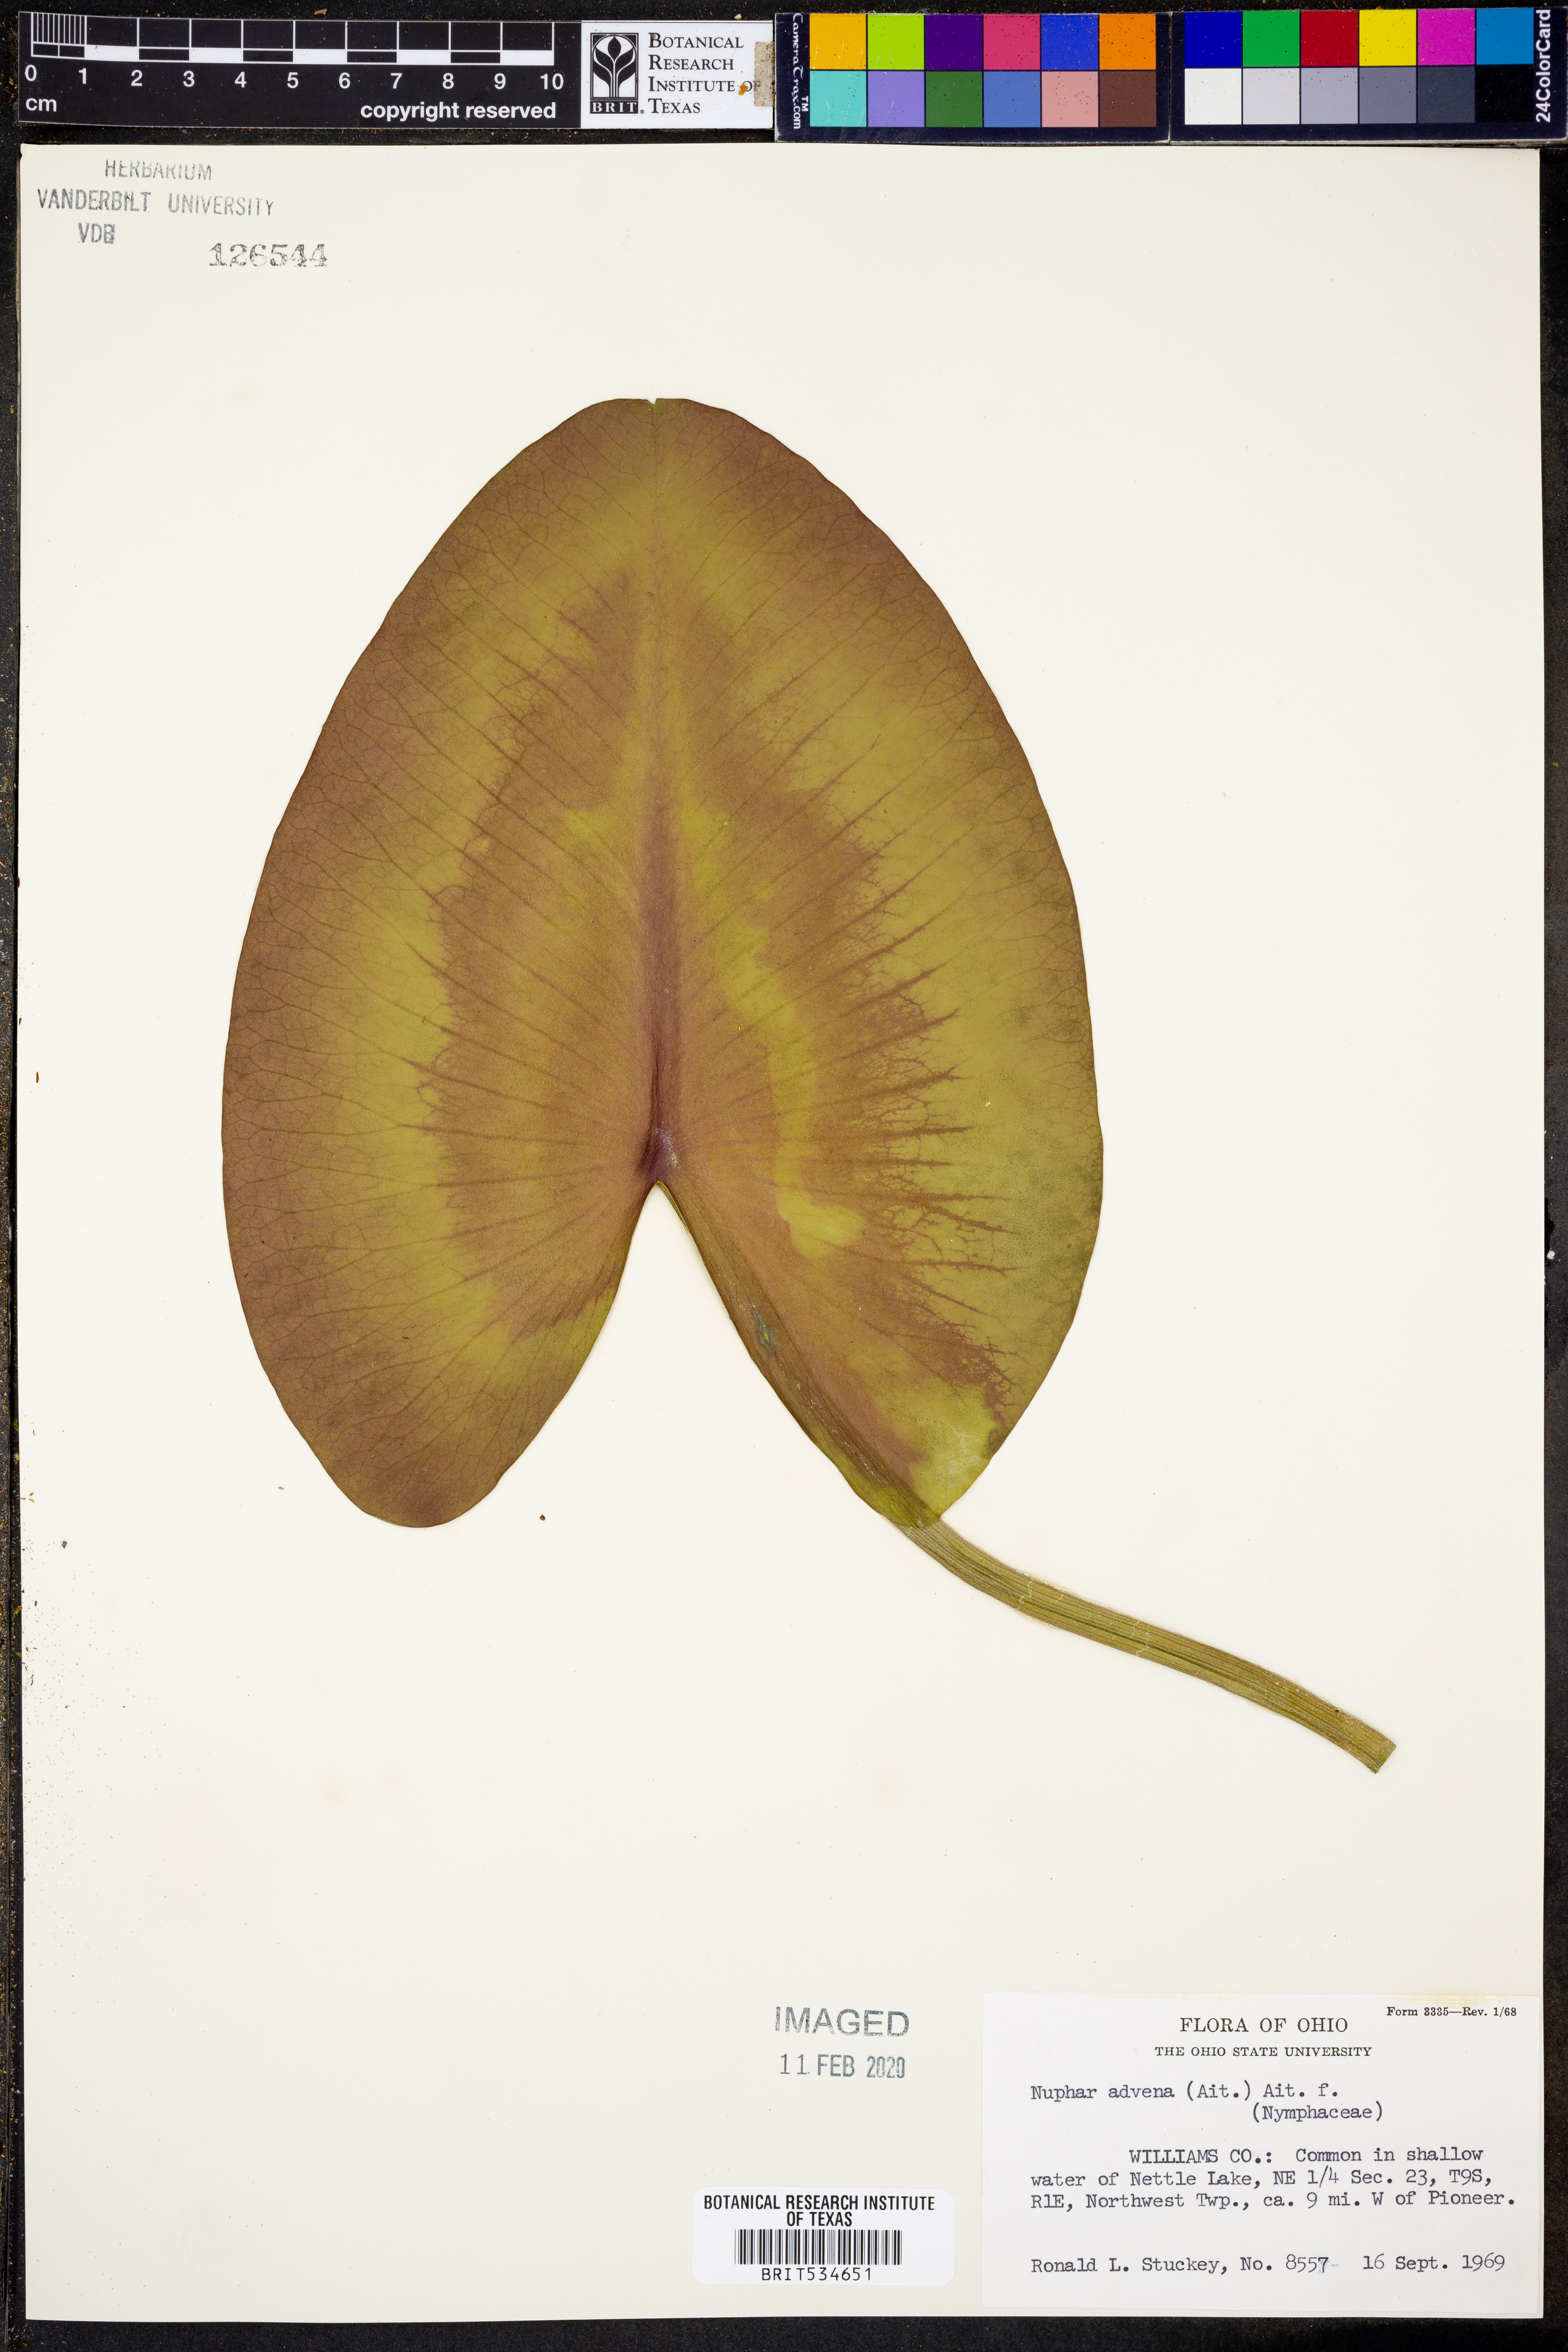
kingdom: Plantae
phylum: Tracheophyta
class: Magnoliopsida
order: Nymphaeales
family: Nymphaeaceae
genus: Nuphar
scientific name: Nuphar advena
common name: Spatter-dock
